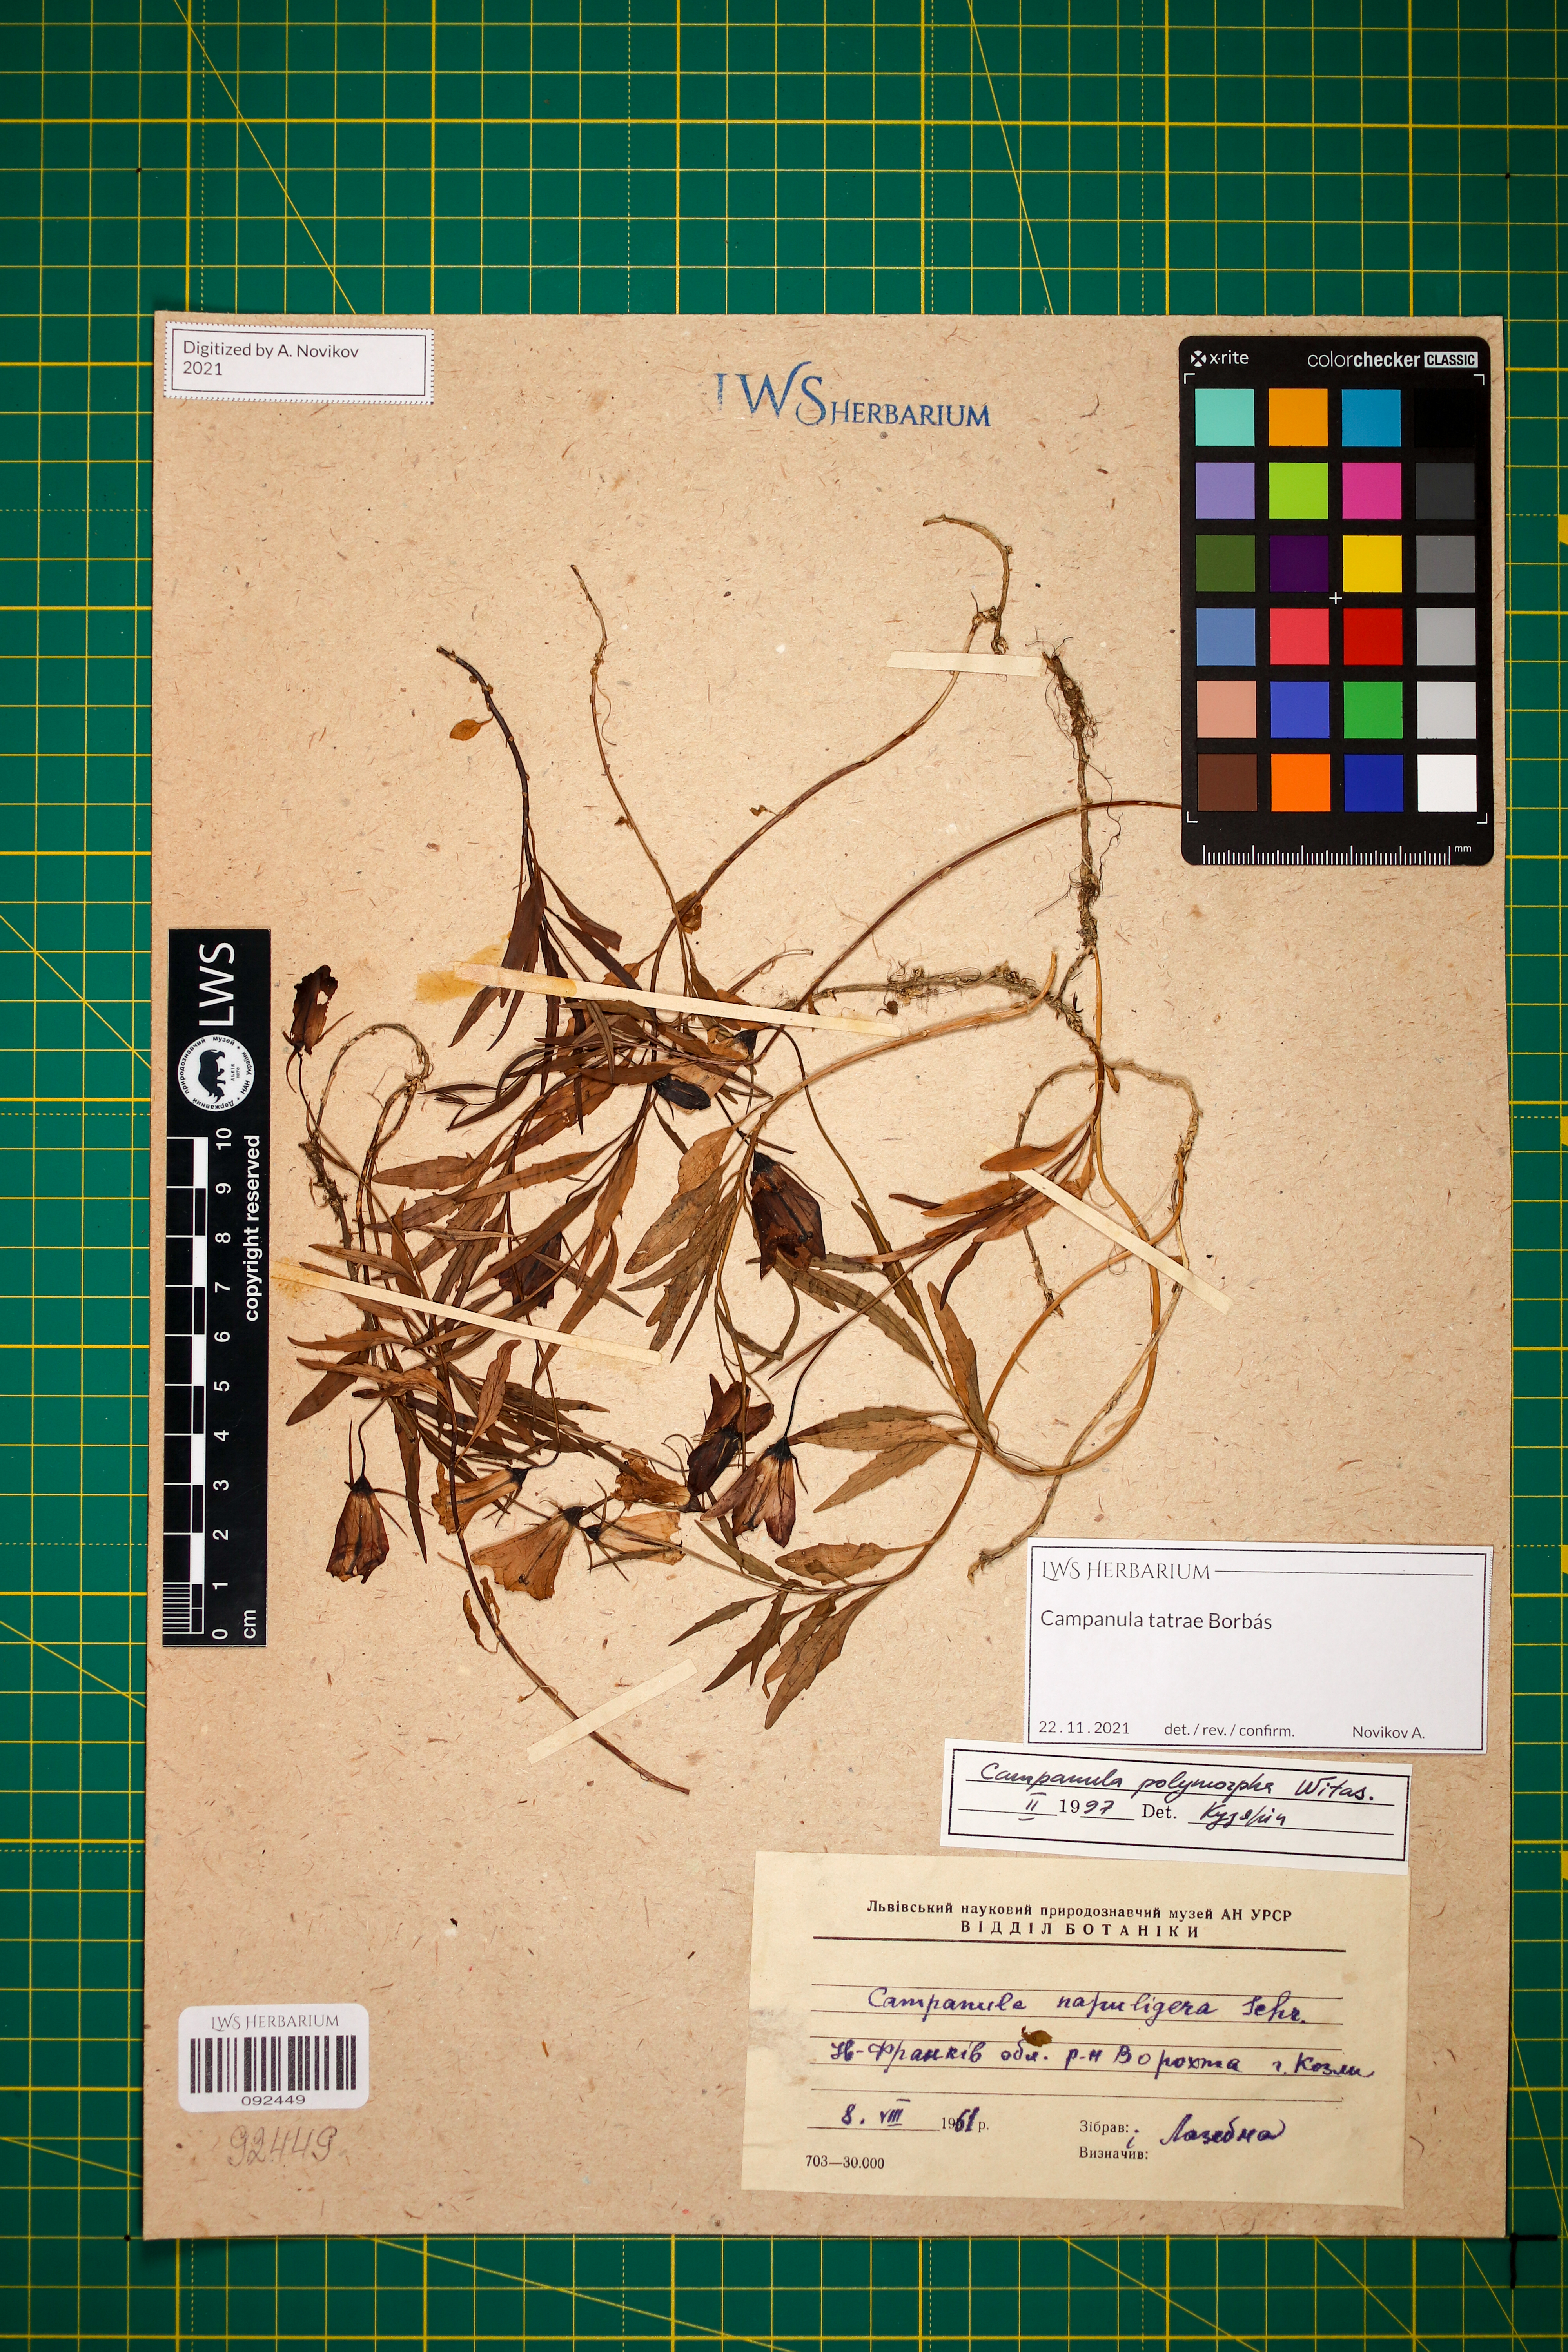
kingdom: Plantae
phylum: Tracheophyta
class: Magnoliopsida
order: Asterales
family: Campanulaceae
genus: Campanula
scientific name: Campanula tatrae
